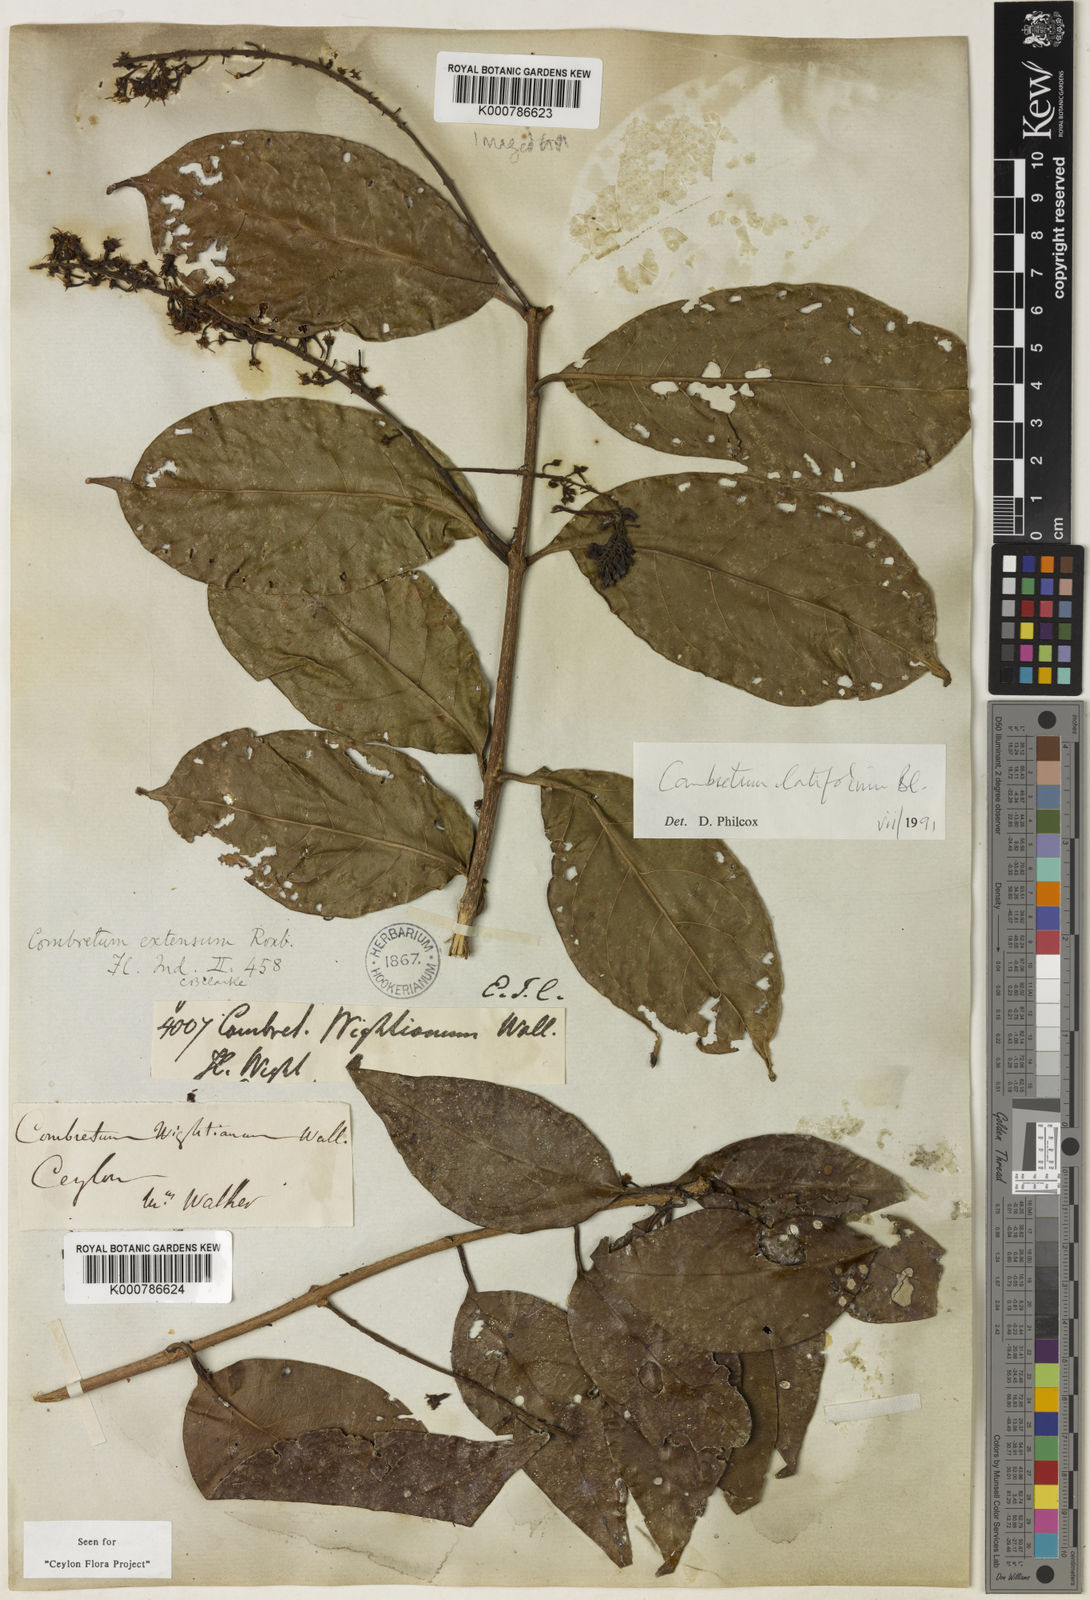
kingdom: Plantae
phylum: Tracheophyta
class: Magnoliopsida
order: Myrtales
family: Combretaceae
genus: Combretum
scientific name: Combretum latifolium
